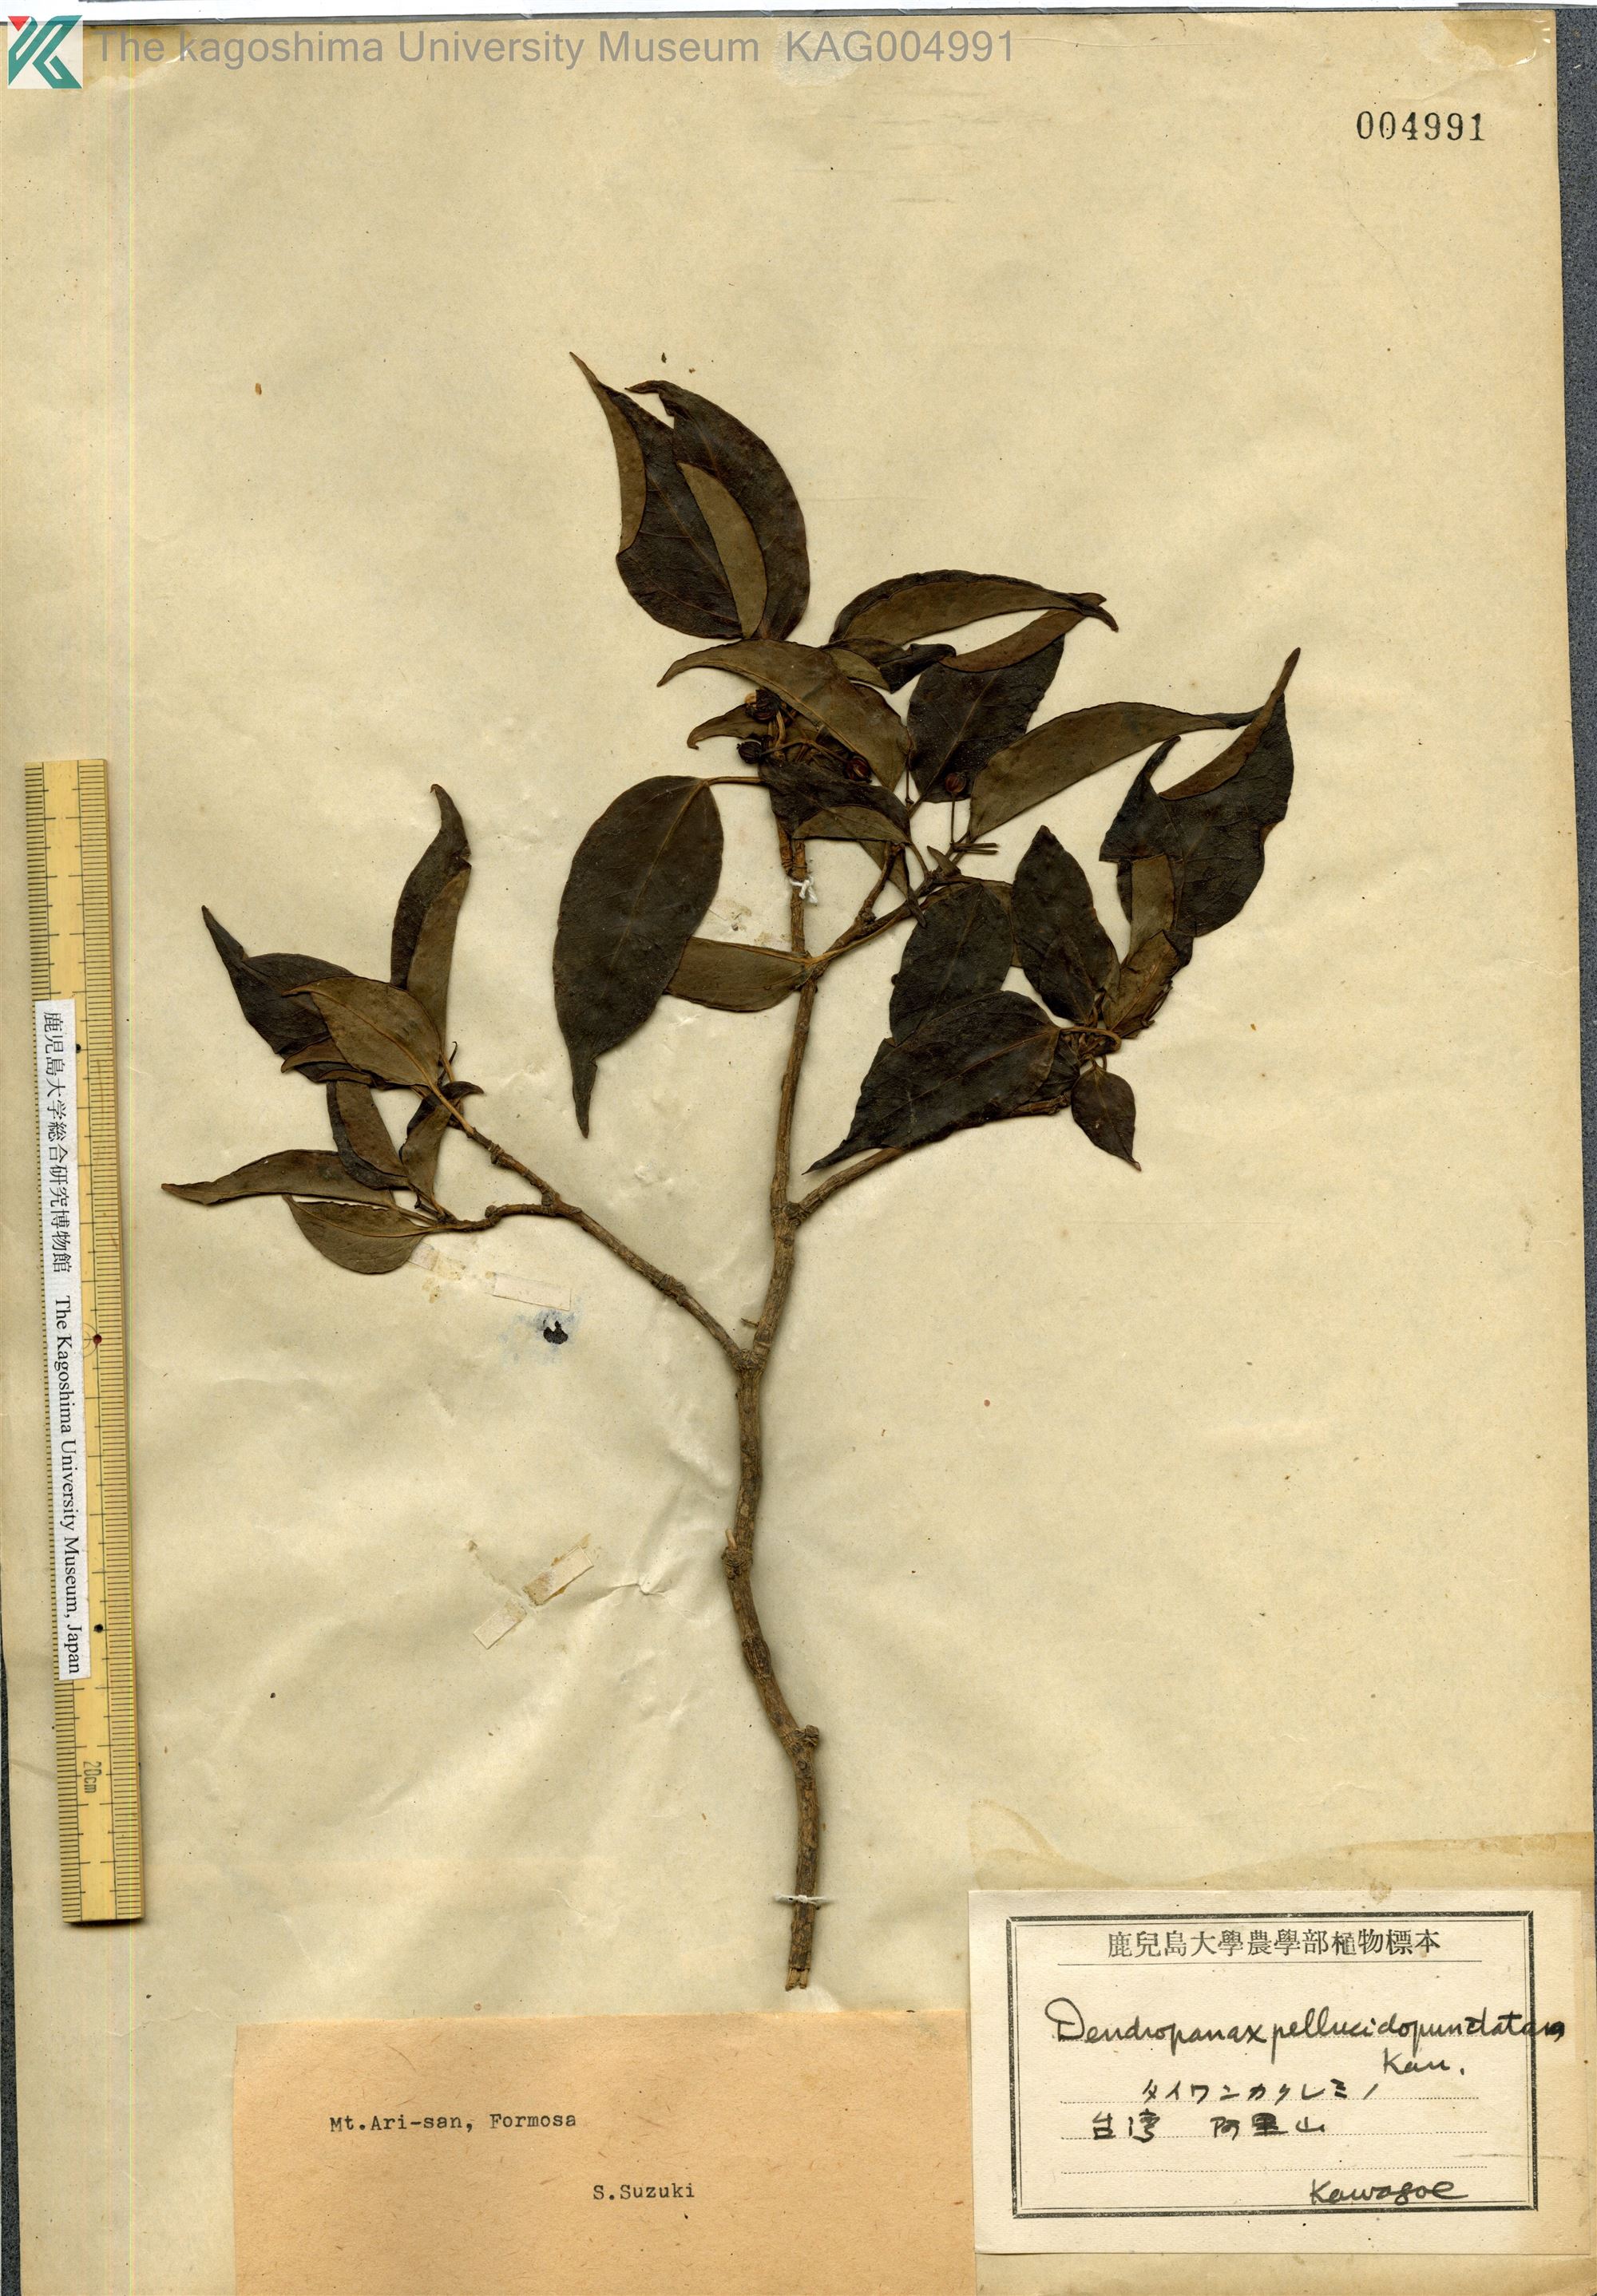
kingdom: Plantae
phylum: Tracheophyta
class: Magnoliopsida
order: Apiales
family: Araliaceae
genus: Dendropanax
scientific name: Dendropanax pellucidopunctatus
